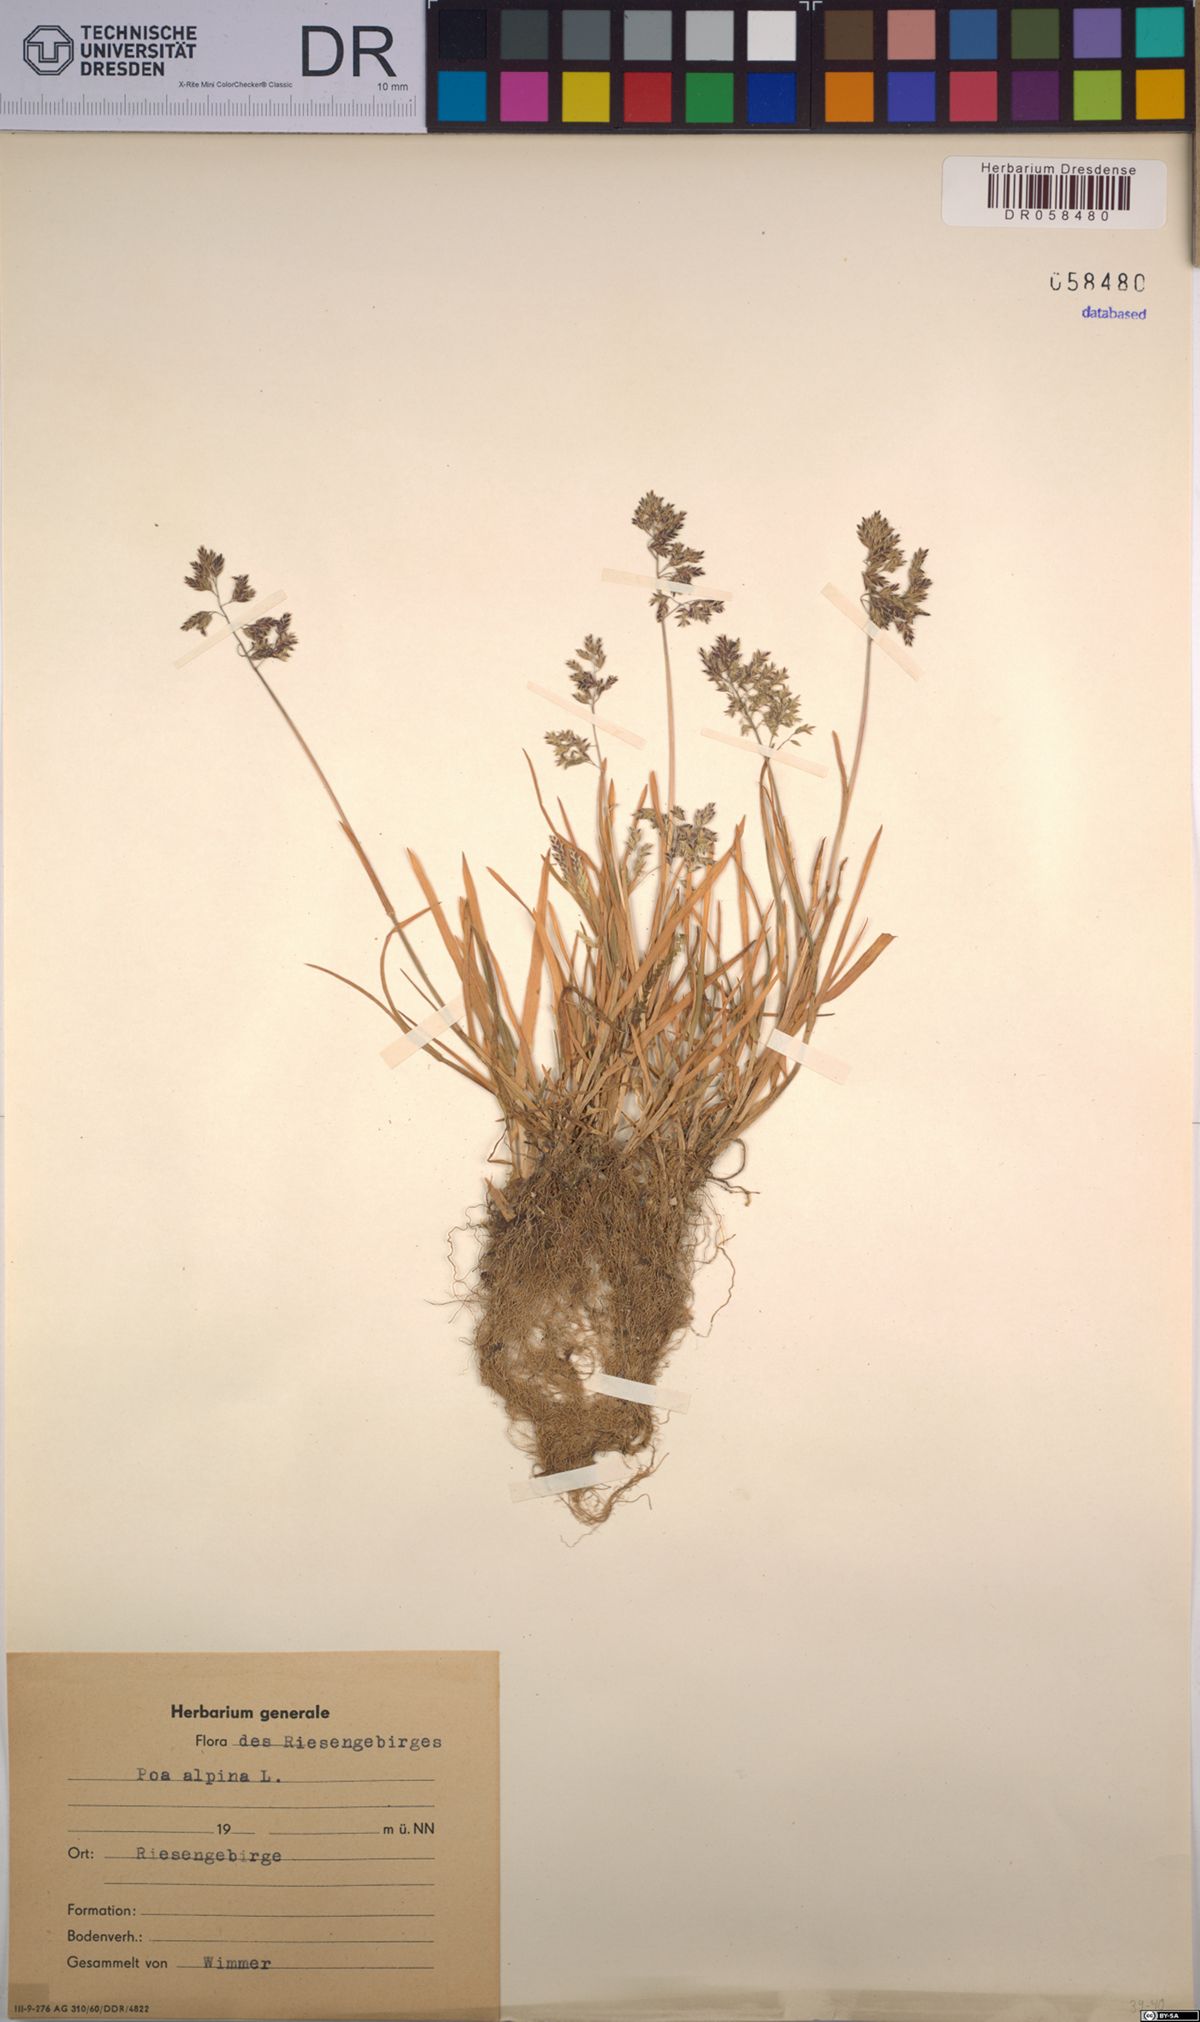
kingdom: Plantae
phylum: Tracheophyta
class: Liliopsida
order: Poales
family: Poaceae
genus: Poa
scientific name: Poa alpina
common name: Alpine bluegrass
